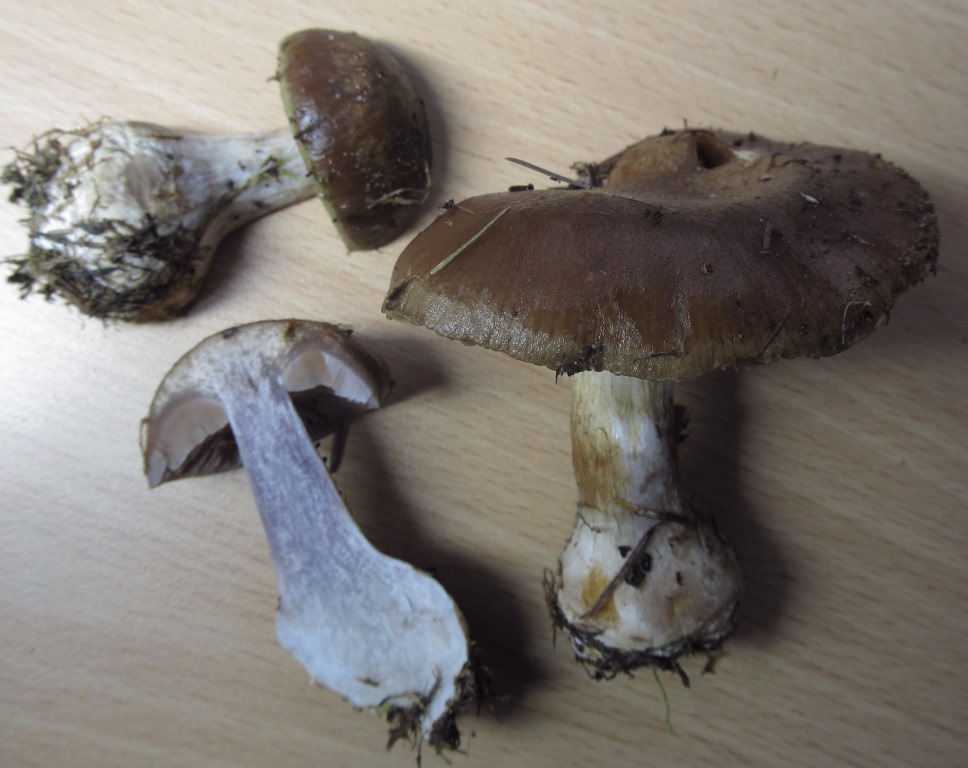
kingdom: Fungi
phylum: Basidiomycota
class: Agaricomycetes
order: Agaricales
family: Cortinariaceae
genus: Thaxterogaster
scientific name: Thaxterogaster sphagnophilus
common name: vandplettet slørhat
